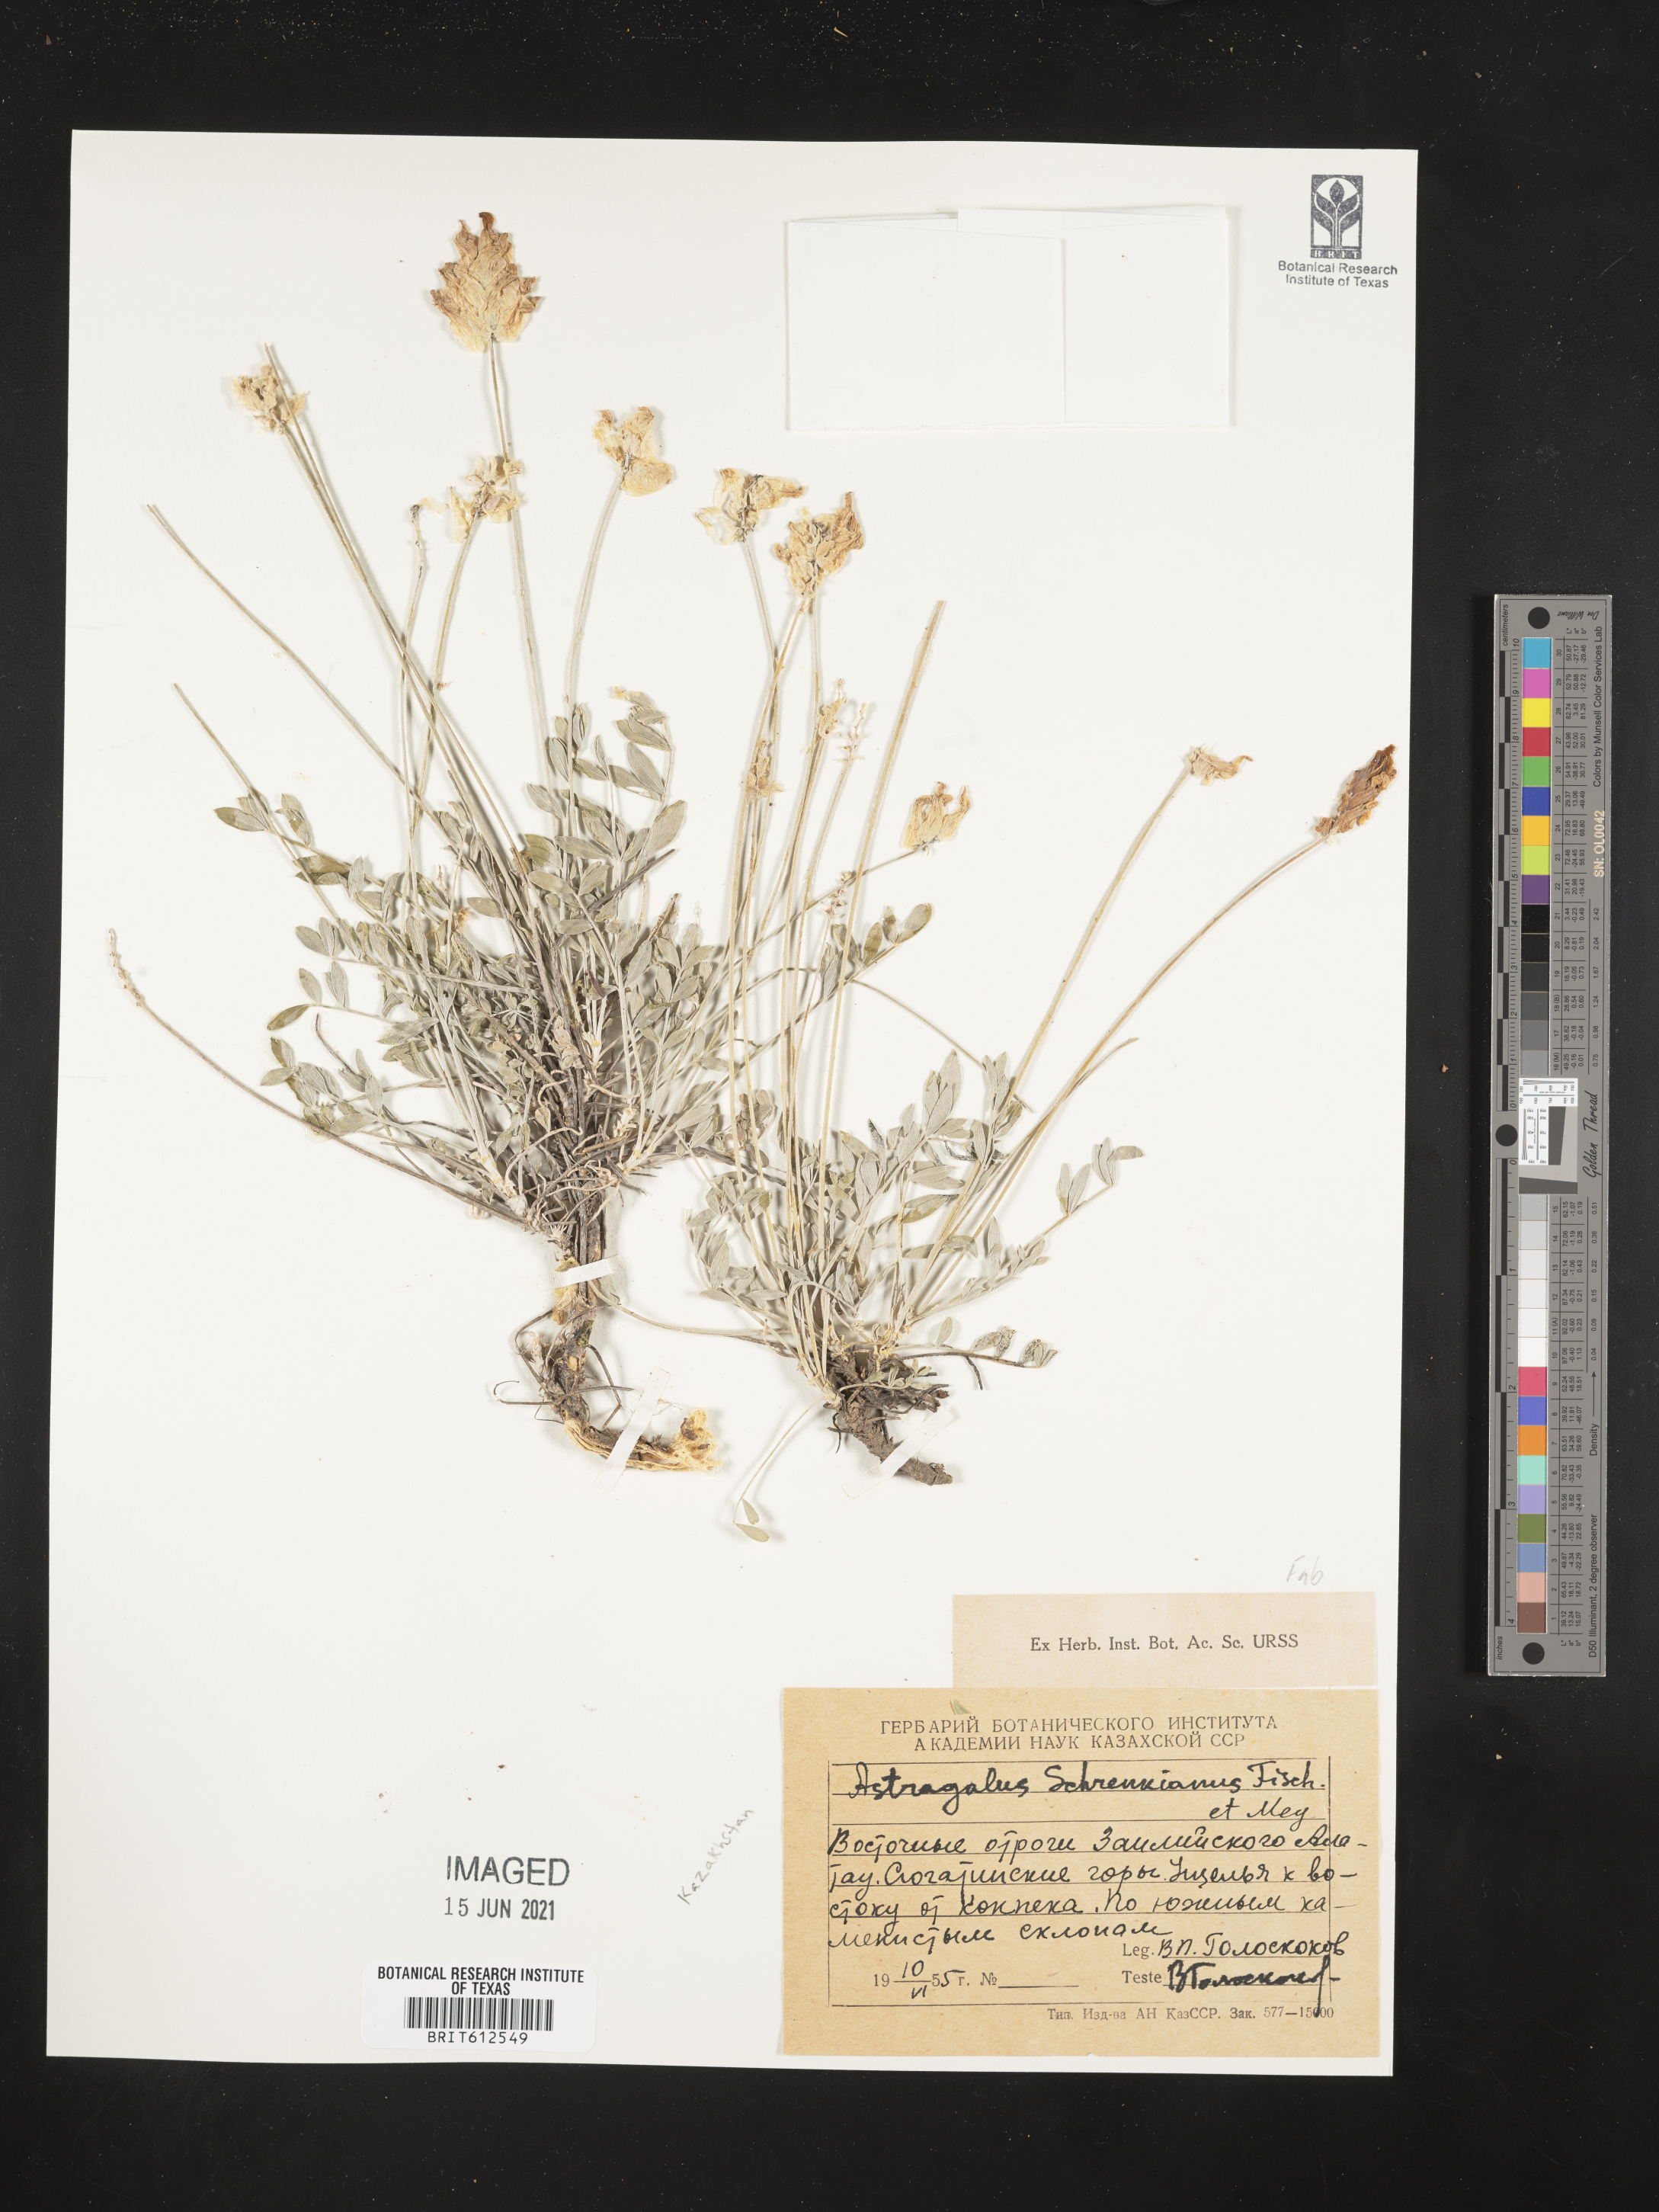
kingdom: Plantae
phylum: Tracheophyta
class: Magnoliopsida
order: Fabales
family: Fabaceae
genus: Astragalus
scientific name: Astragalus schrenkianus
